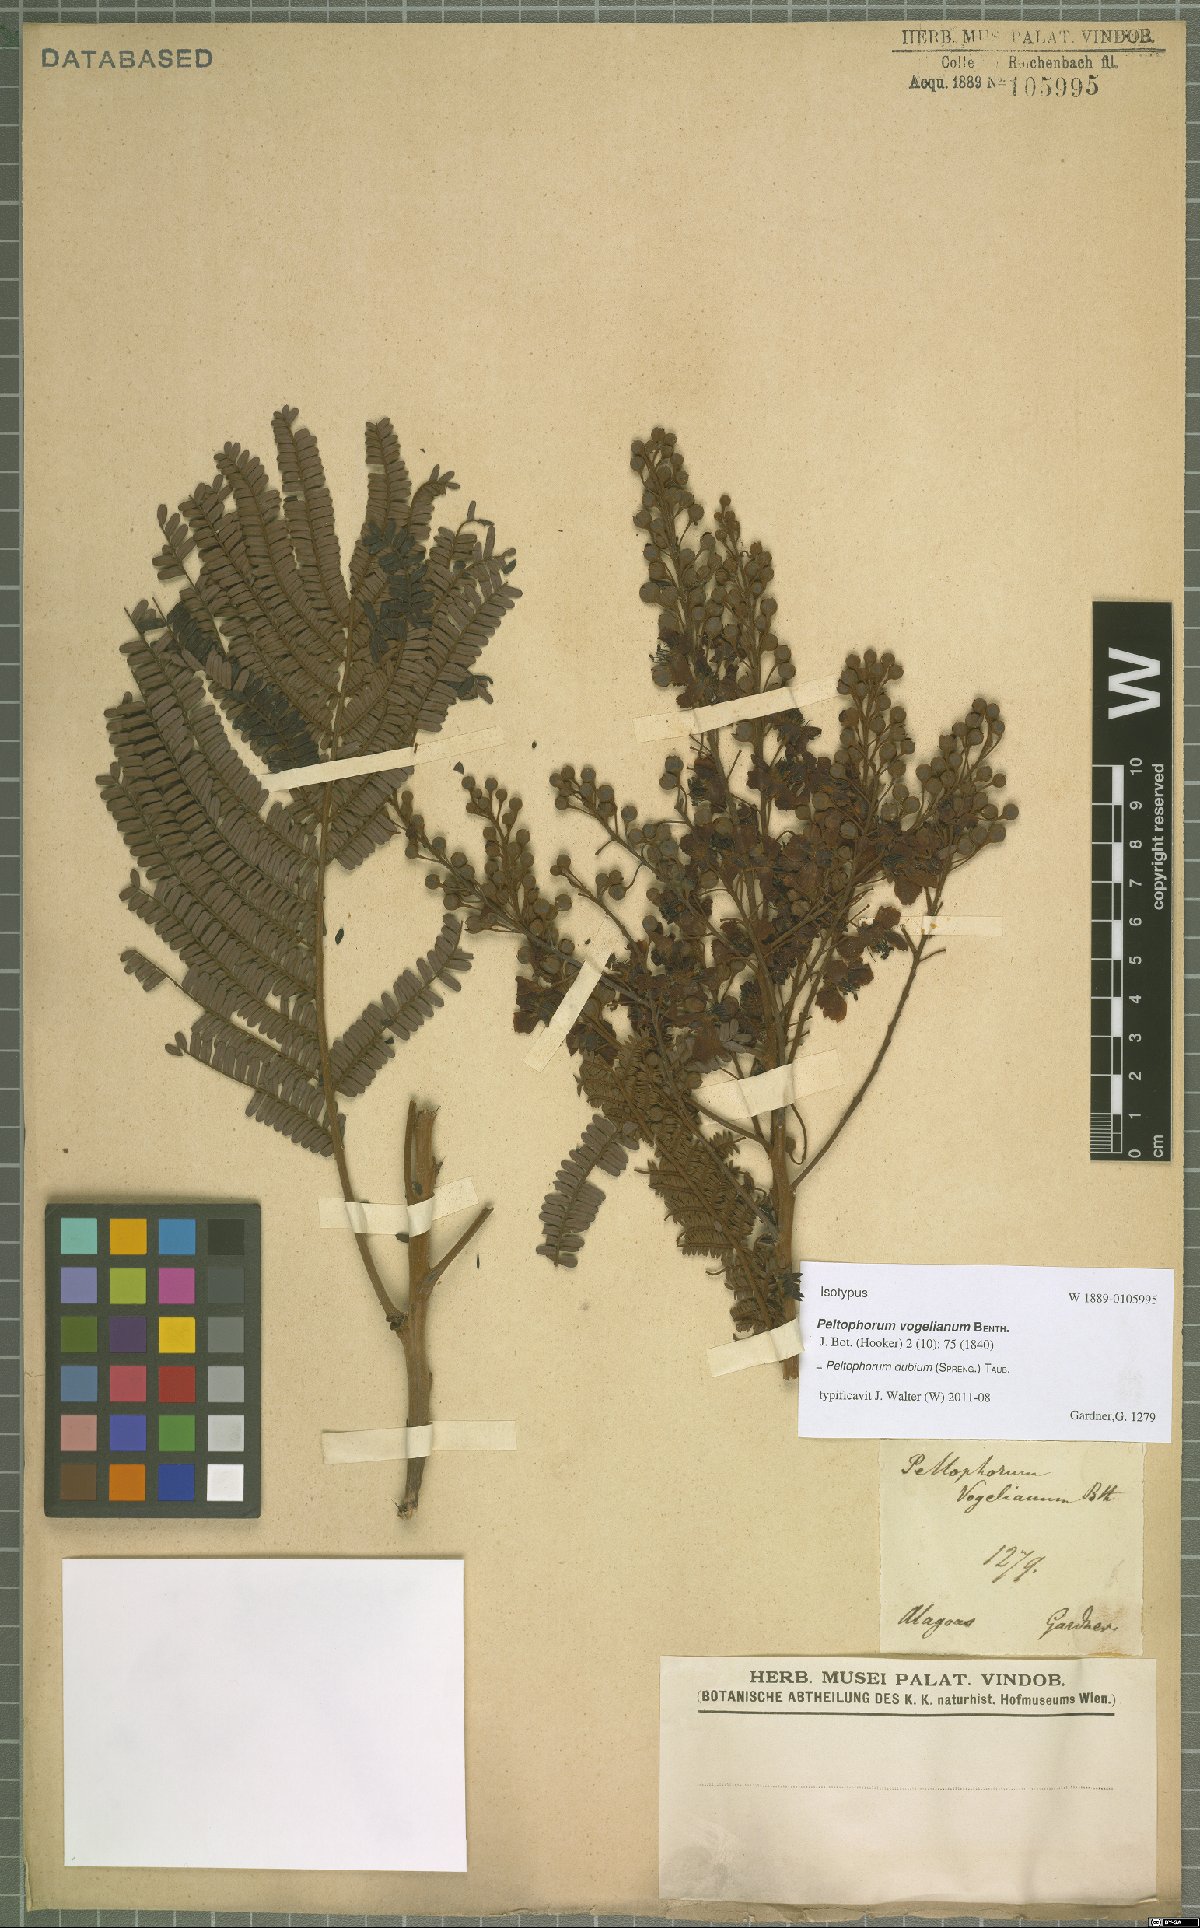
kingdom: Plantae
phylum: Tracheophyta
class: Magnoliopsida
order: Fabales
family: Fabaceae
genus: Peltophorum
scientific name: Peltophorum dubium
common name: Horsebush
